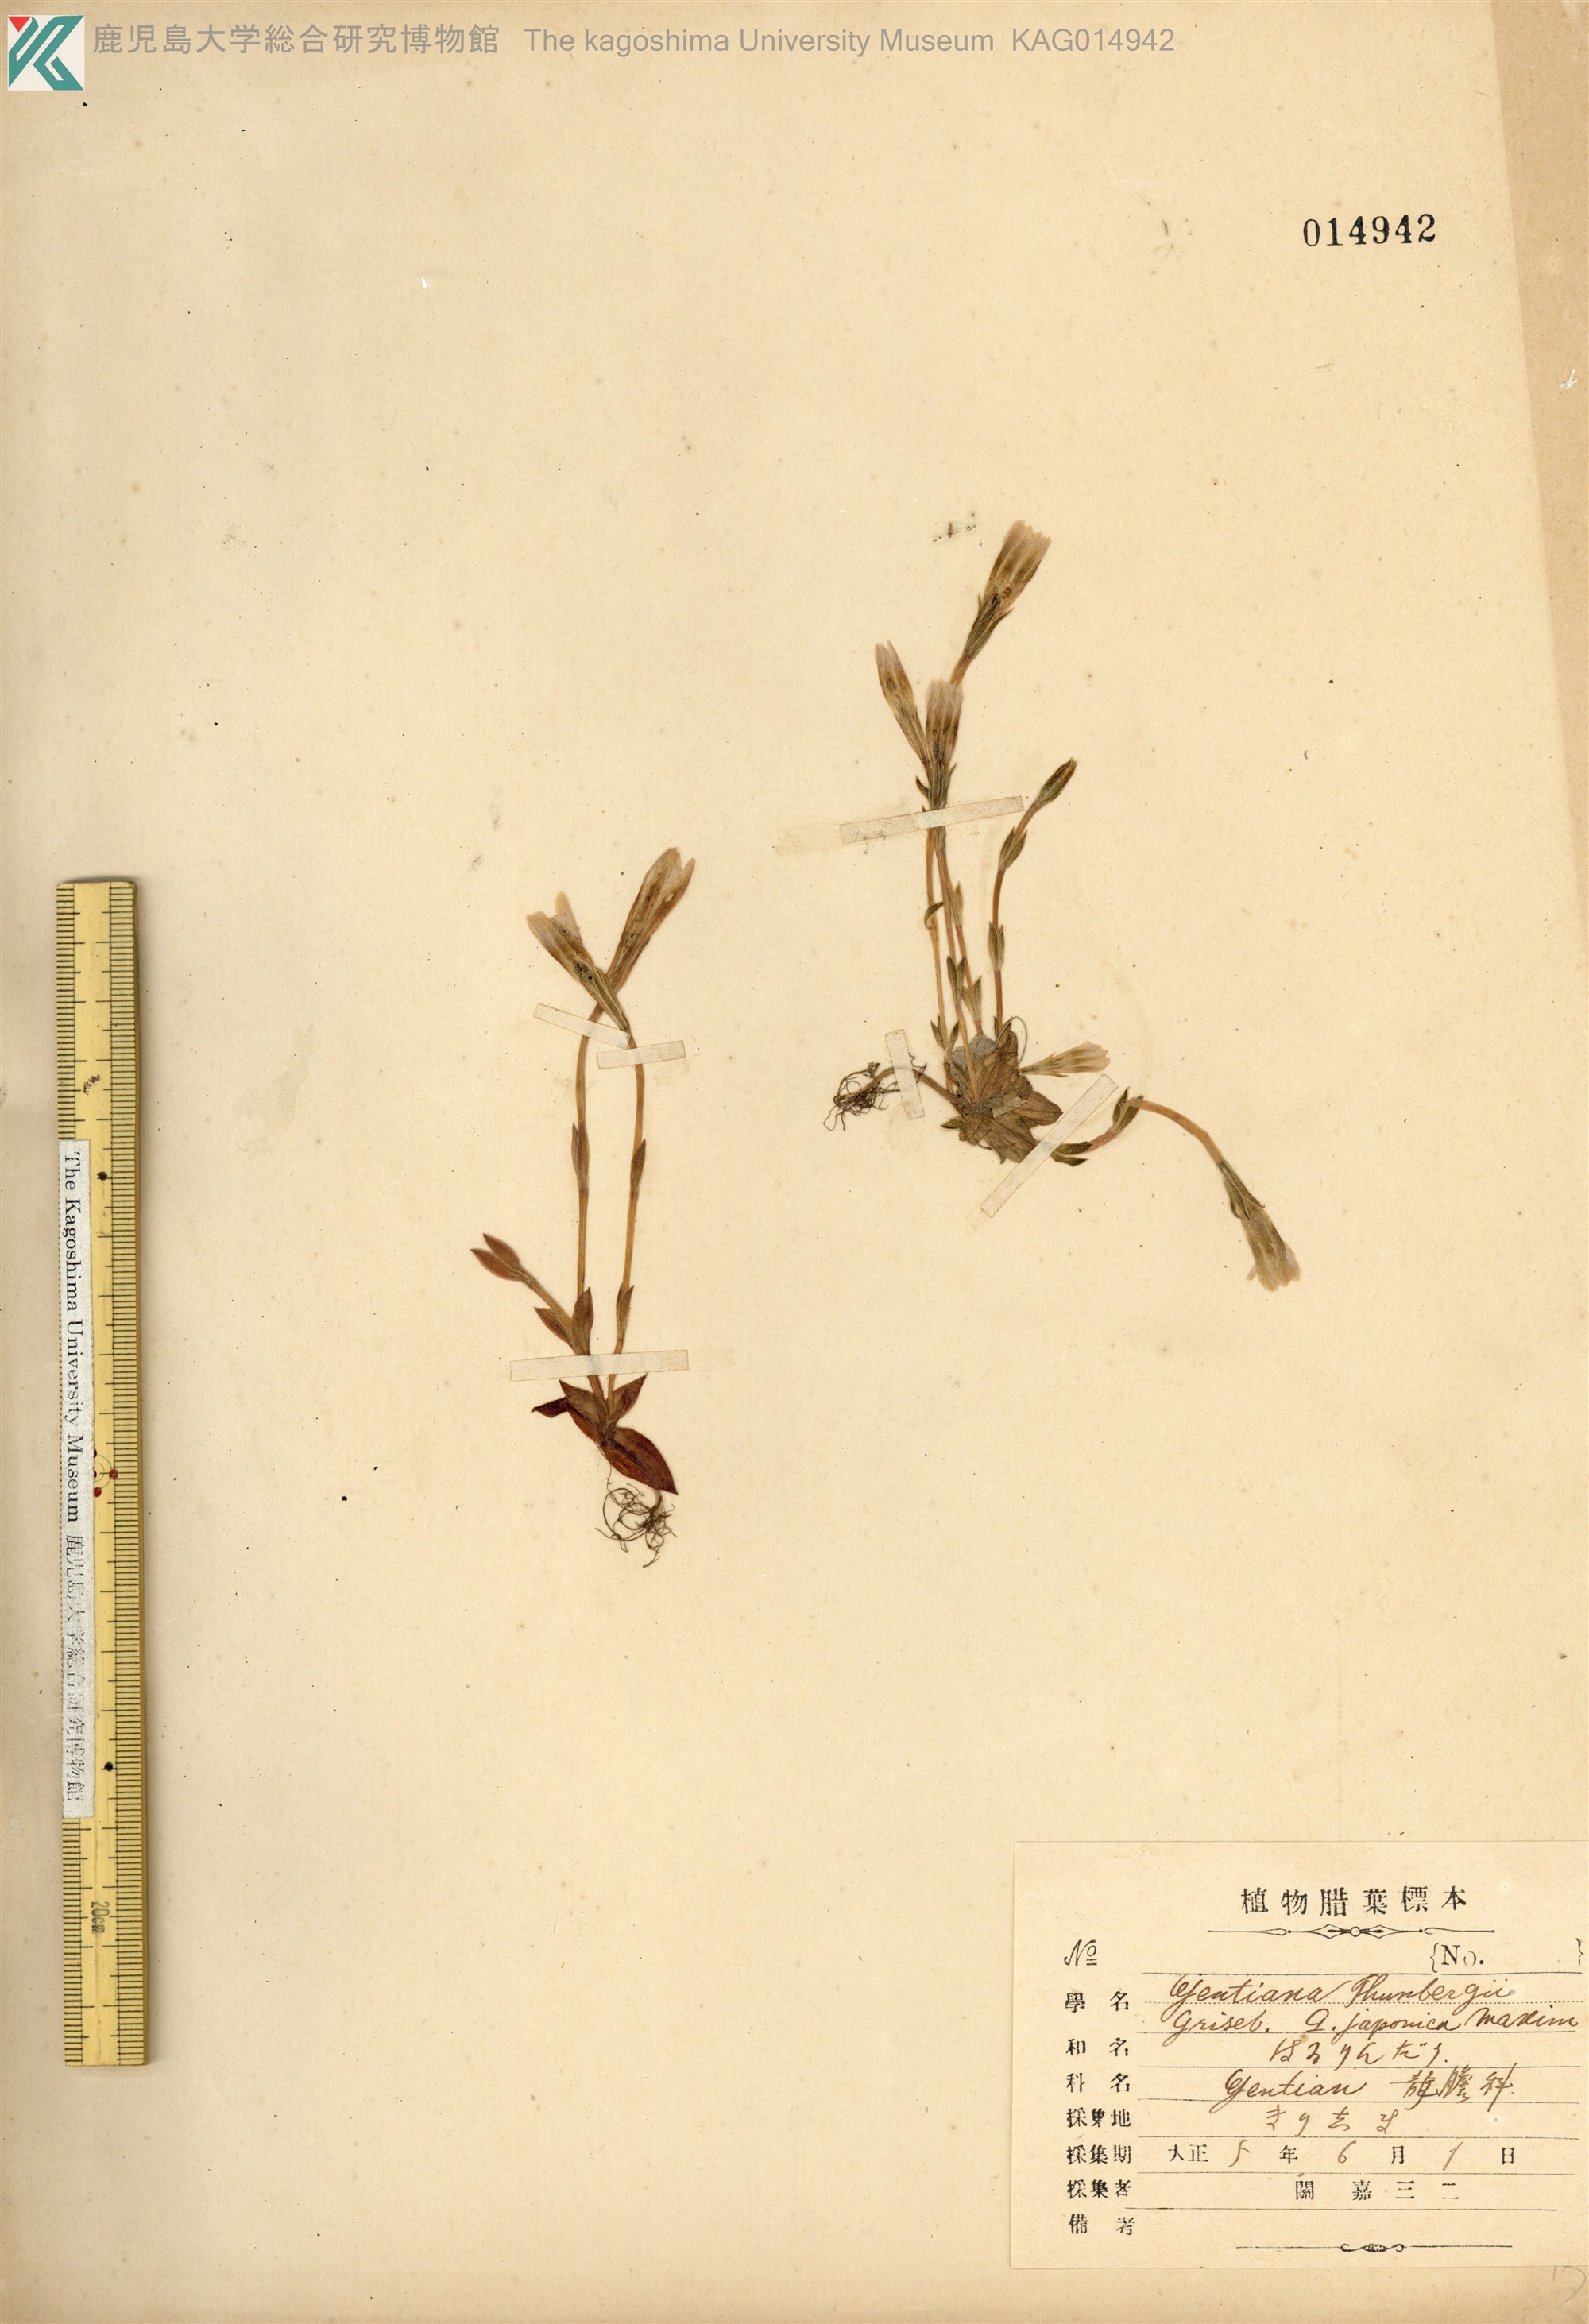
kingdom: Plantae
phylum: Tracheophyta
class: Magnoliopsida
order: Gentianales
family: Gentianaceae
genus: Gentiana
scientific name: Gentiana thunbergii
